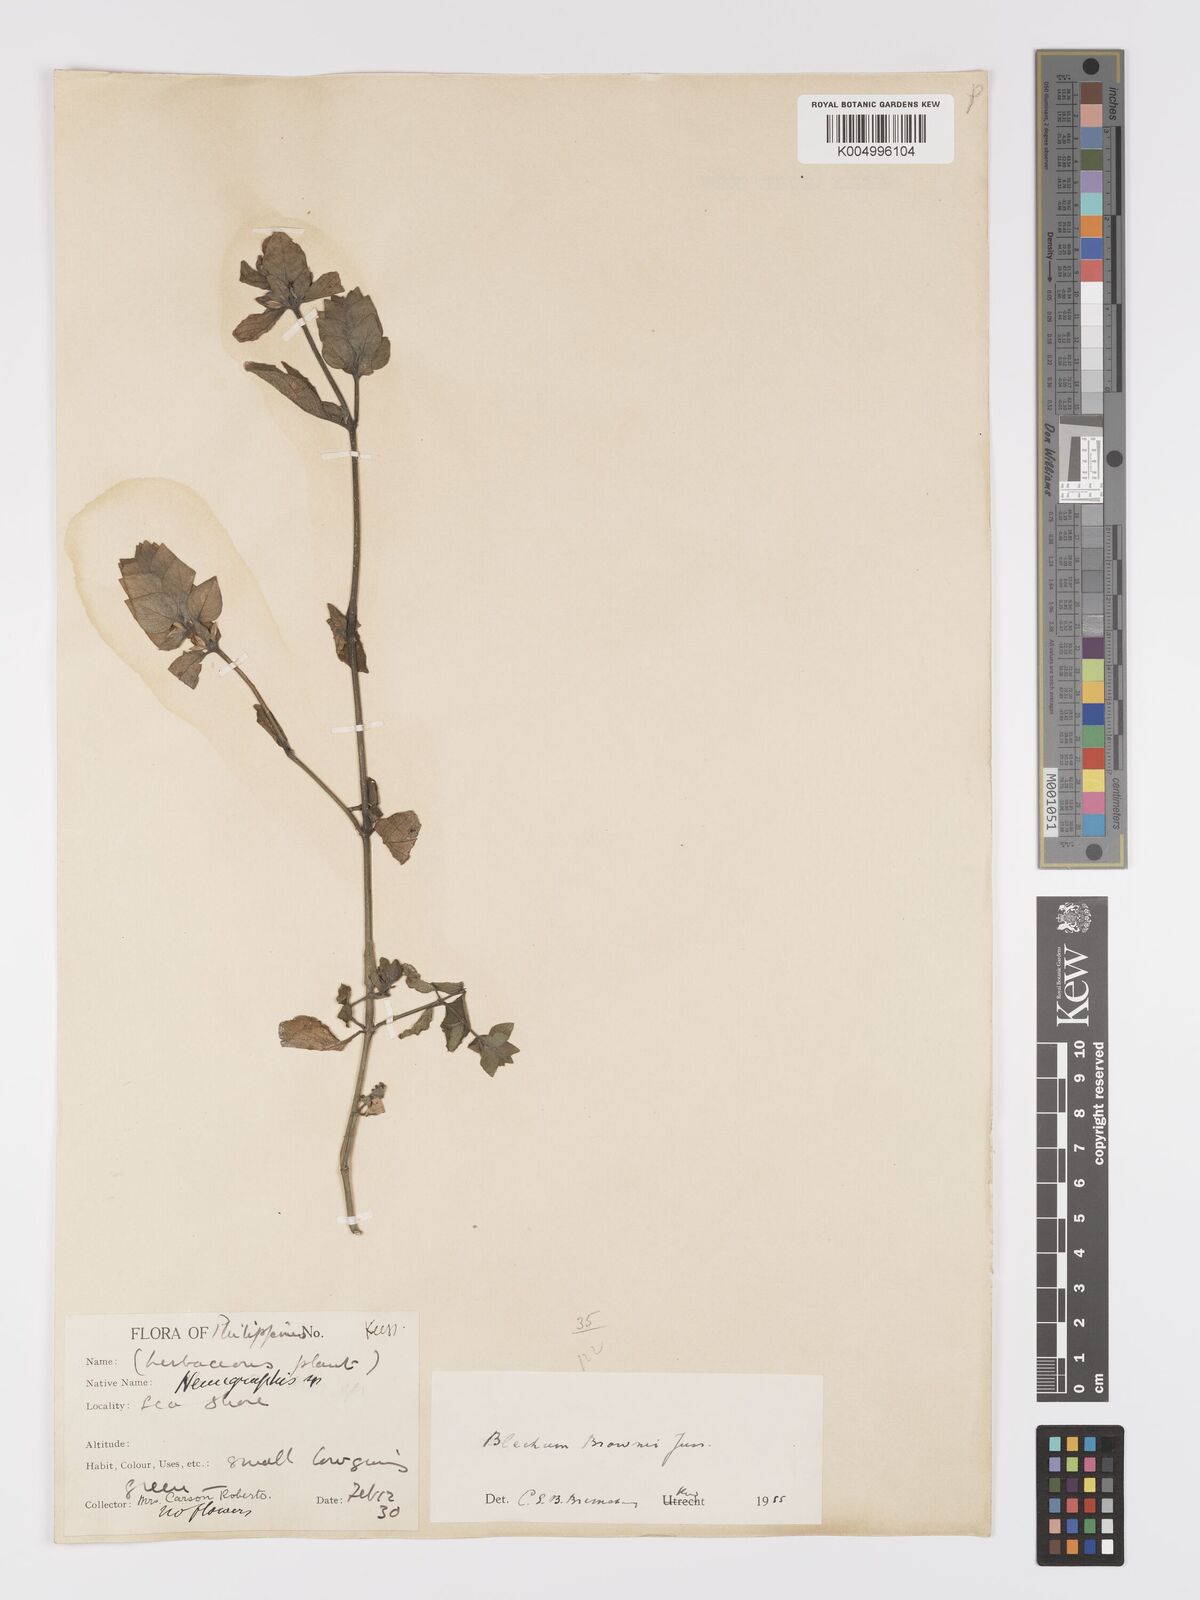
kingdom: Plantae
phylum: Tracheophyta
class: Magnoliopsida
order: Lamiales
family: Acanthaceae
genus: Ruellia
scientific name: Ruellia blechum
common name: Browne's blechum
